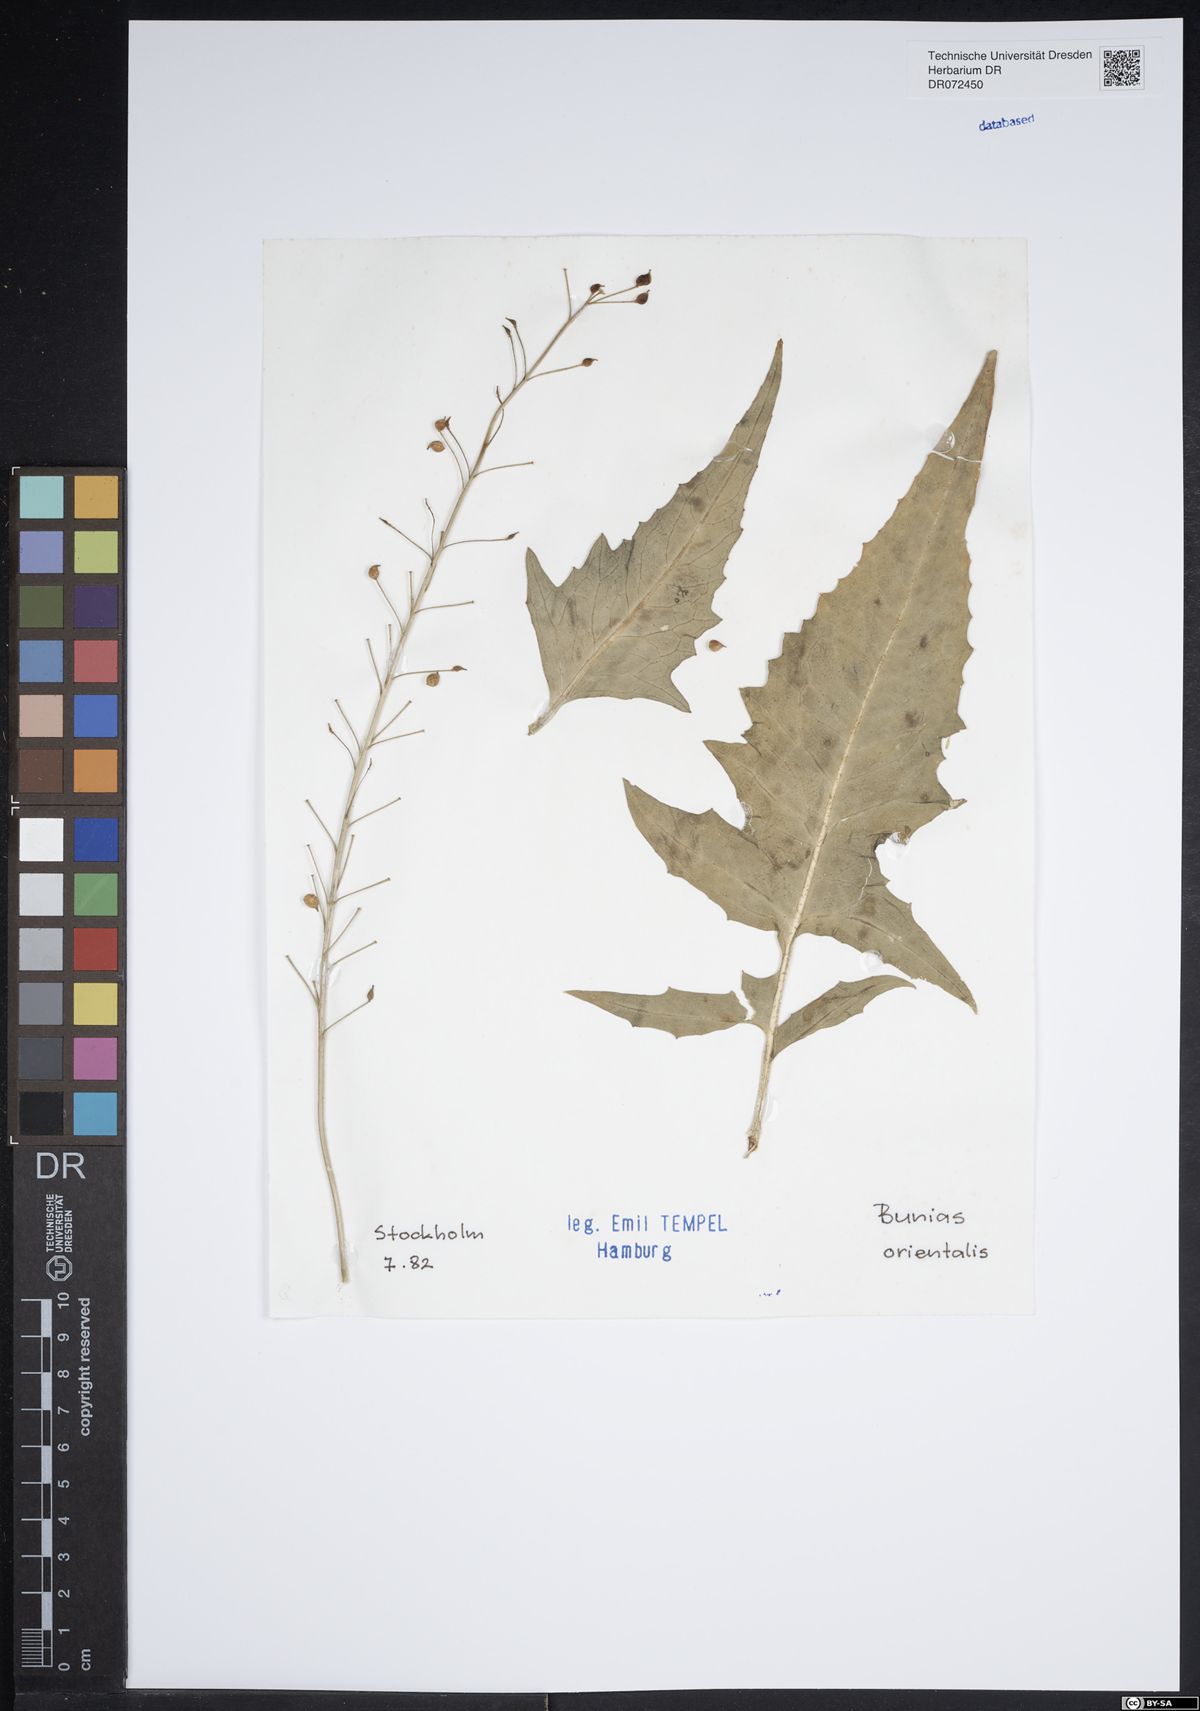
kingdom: Plantae
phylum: Tracheophyta
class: Magnoliopsida
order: Brassicales
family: Brassicaceae
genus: Bunias
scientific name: Bunias orientalis
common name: Warty-cabbage
